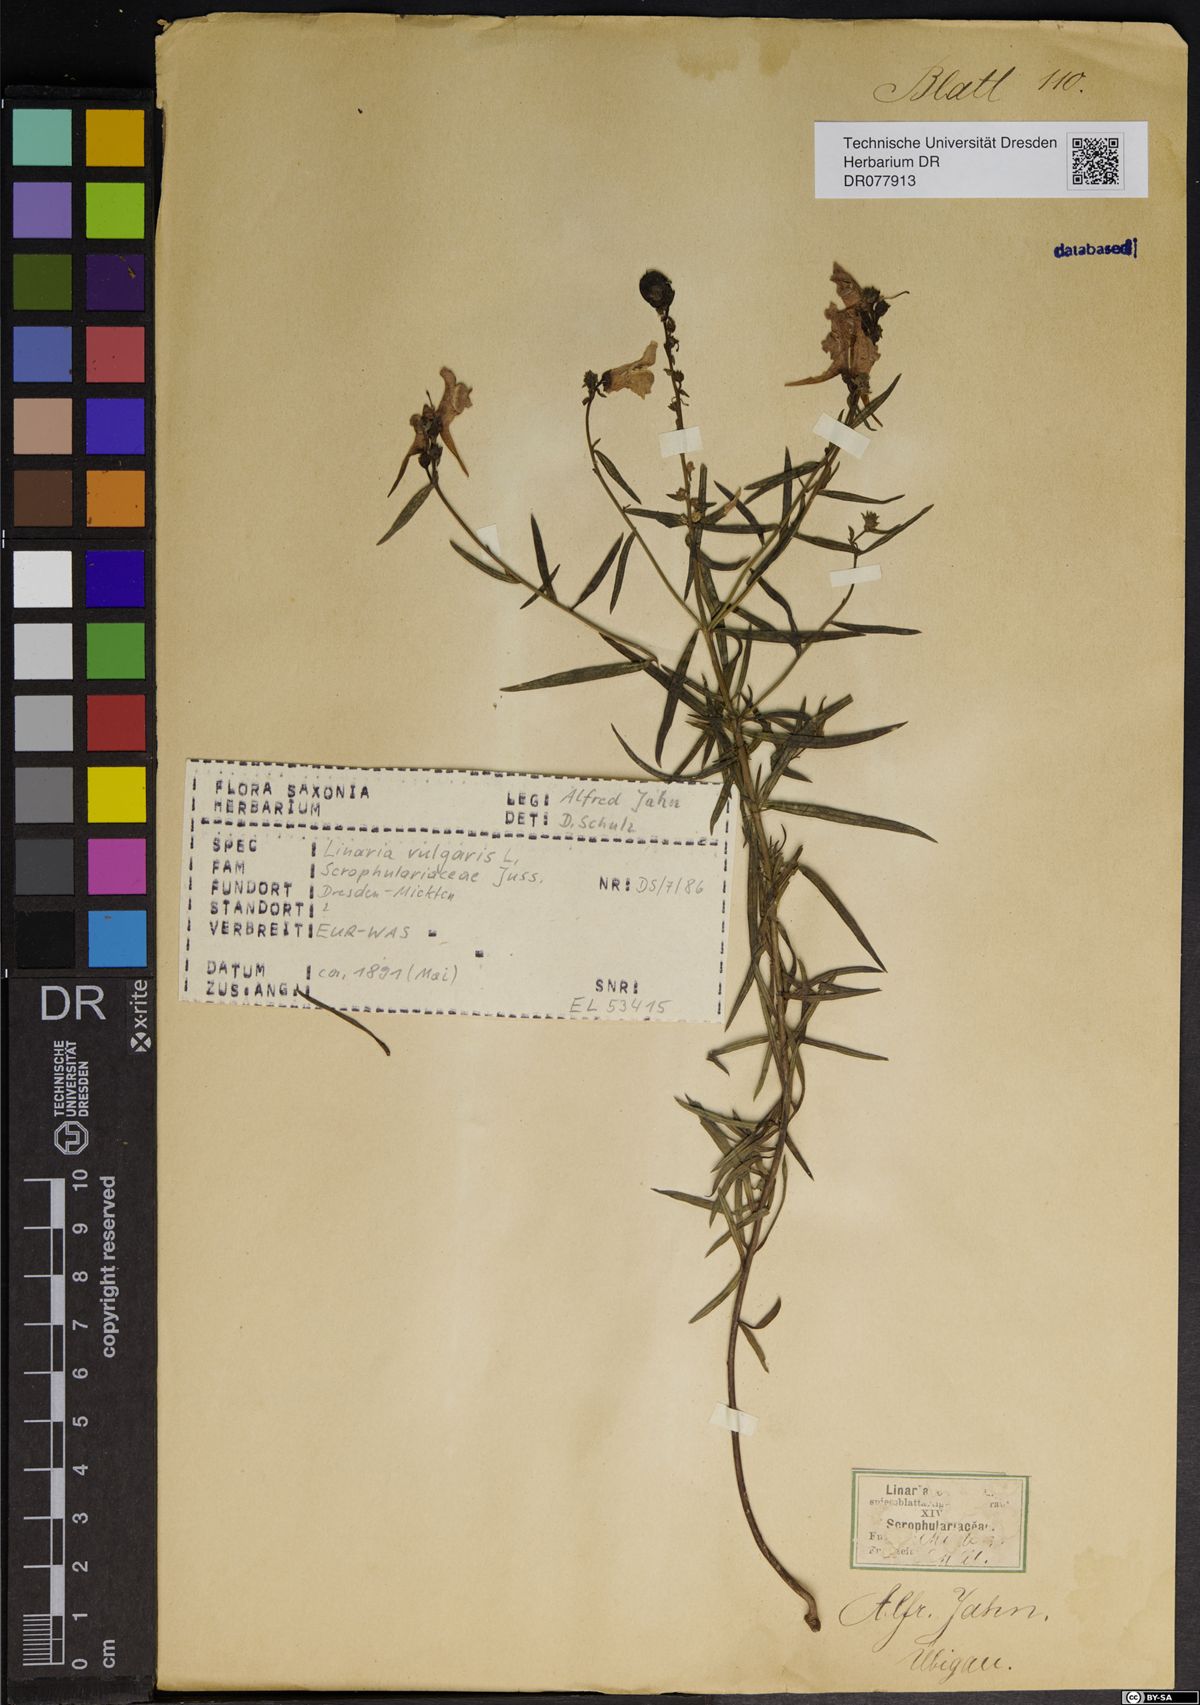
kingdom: Plantae
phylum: Tracheophyta
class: Magnoliopsida
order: Lamiales
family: Plantaginaceae
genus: Linaria
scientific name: Linaria vulgaris
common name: Butter and eggs
